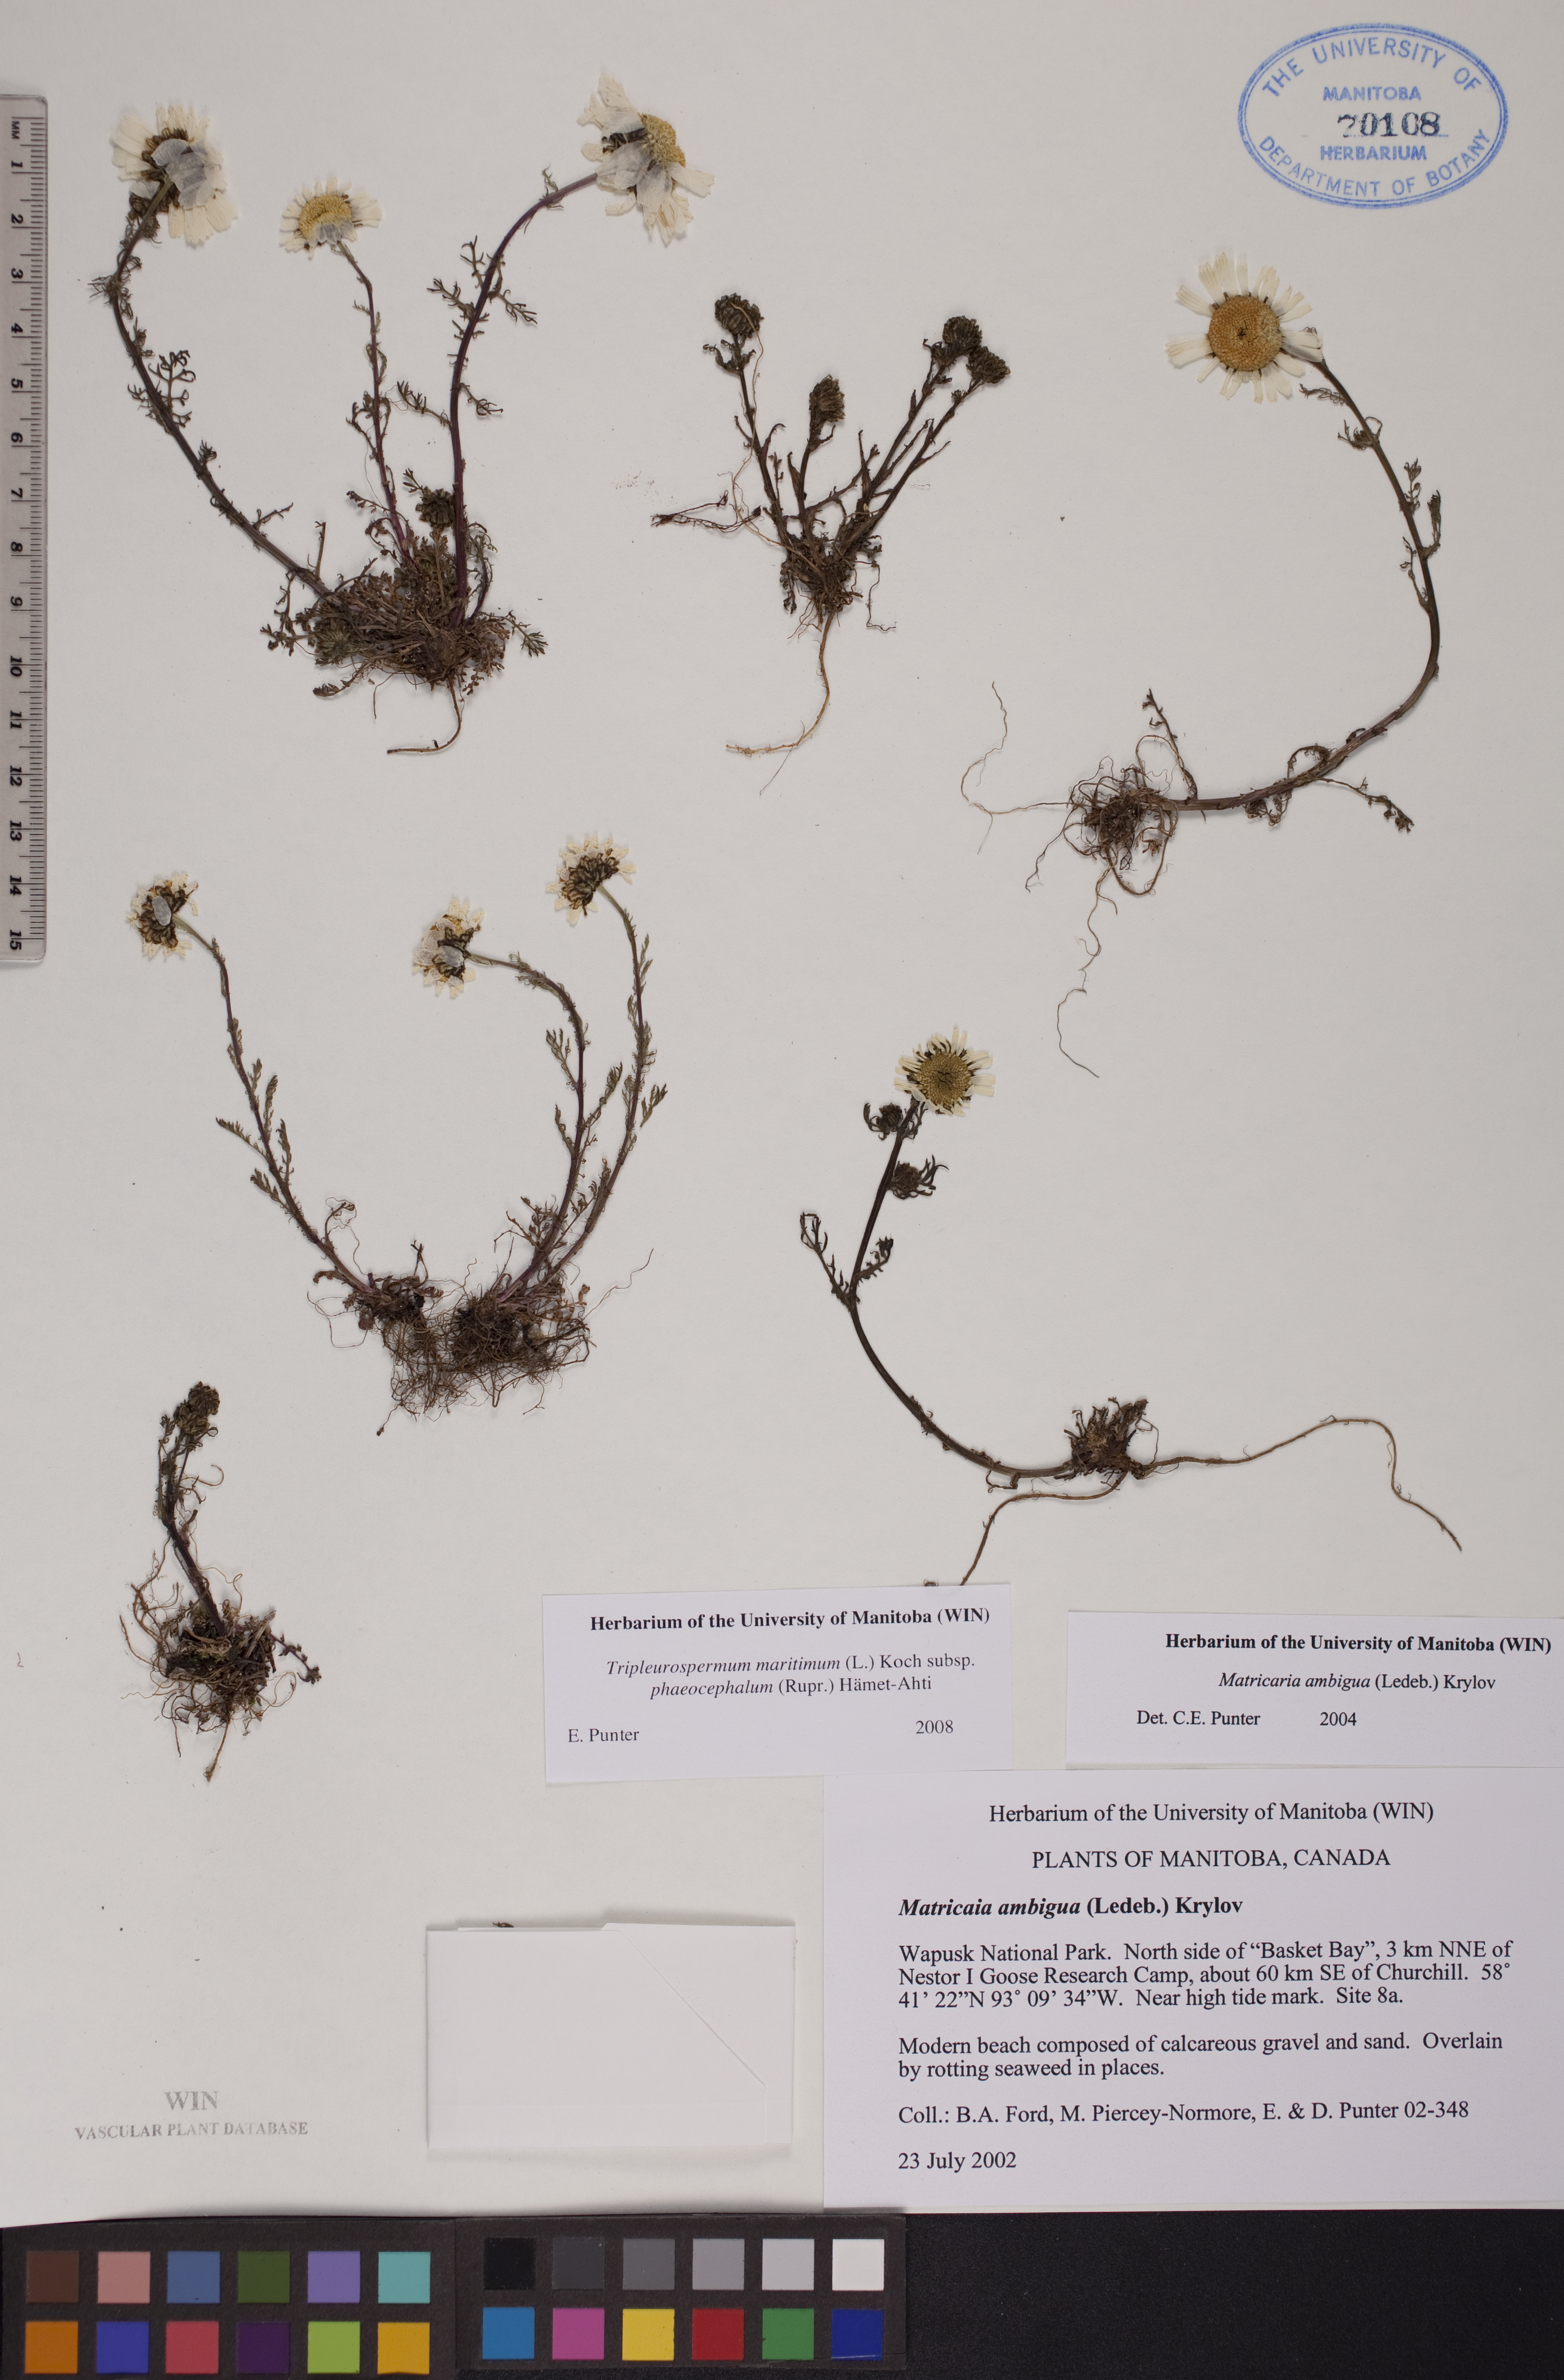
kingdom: Plantae
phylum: Tracheophyta
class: Magnoliopsida
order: Asterales
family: Asteraceae
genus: Tripleurospermum
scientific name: Tripleurospermum hookeri
